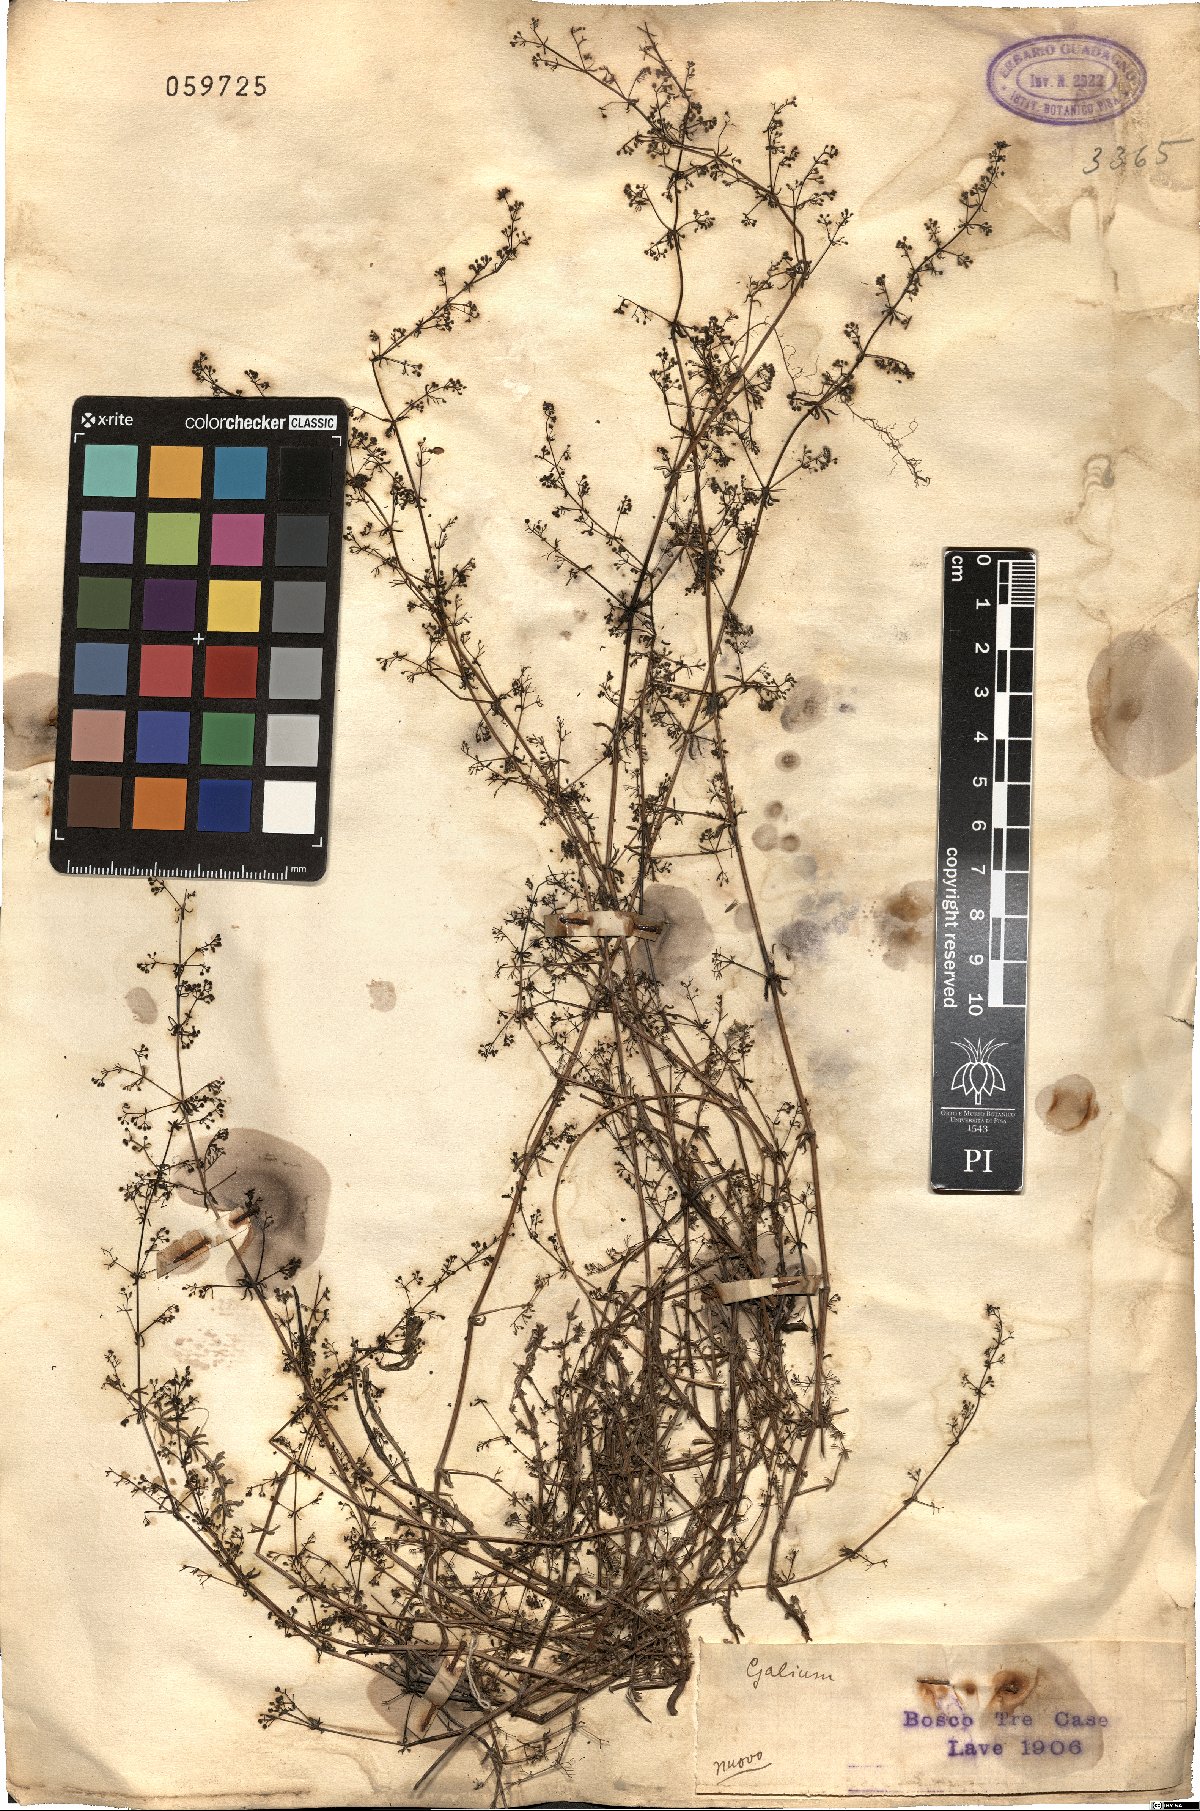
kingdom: Plantae
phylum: Tracheophyta
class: Magnoliopsida
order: Gentianales
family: Rubiaceae
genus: Galium
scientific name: Galium
